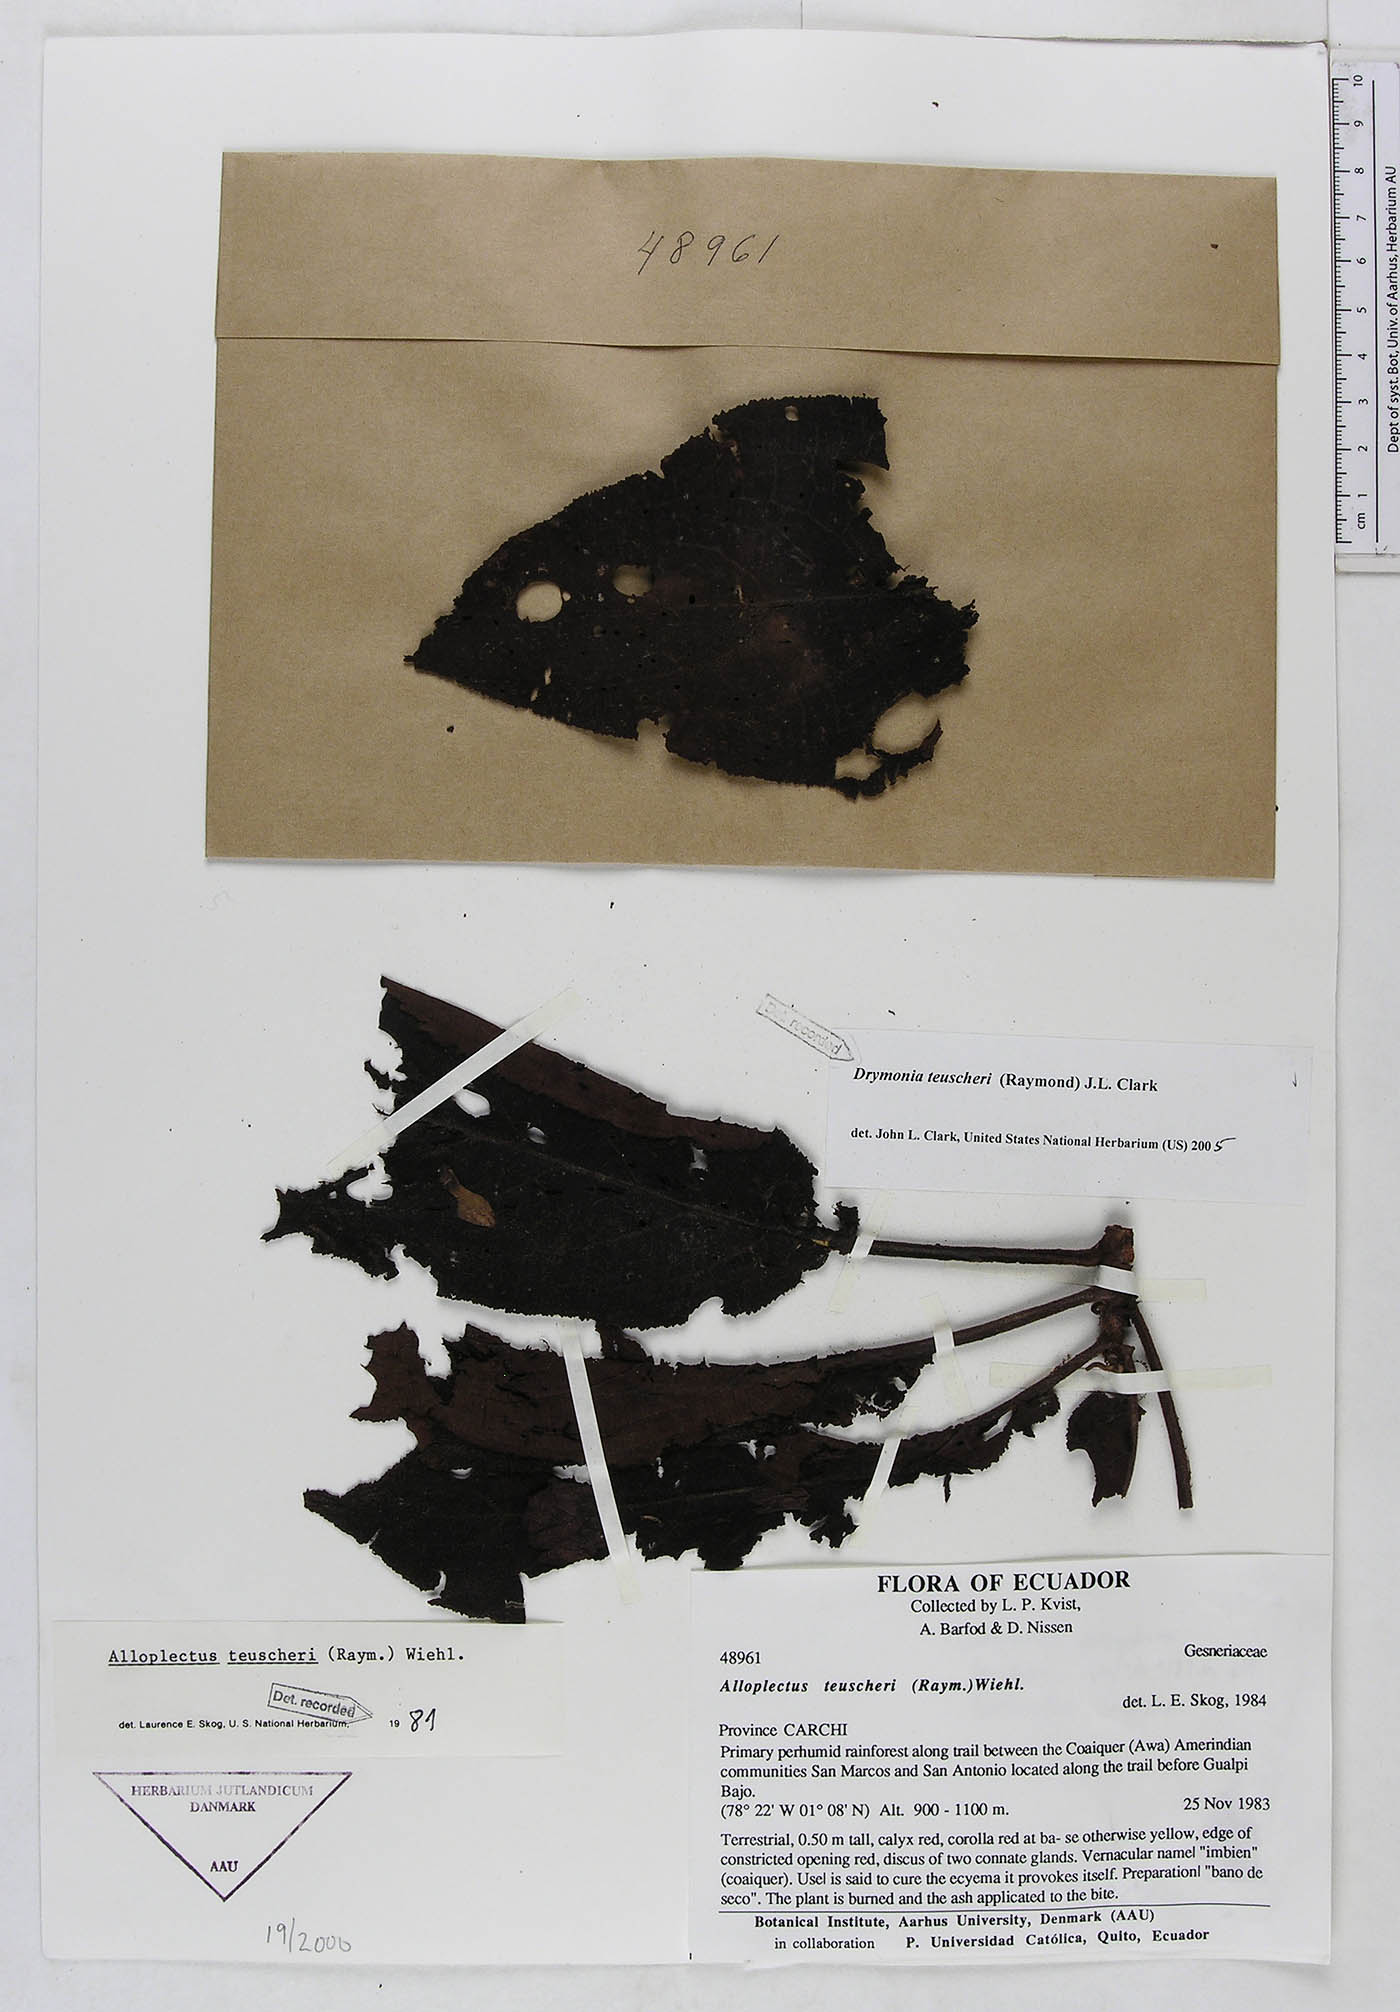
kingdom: Plantae
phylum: Tracheophyta
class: Magnoliopsida
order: Lamiales
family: Gesneriaceae
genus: Drymonia
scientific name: Drymonia teuscheri
